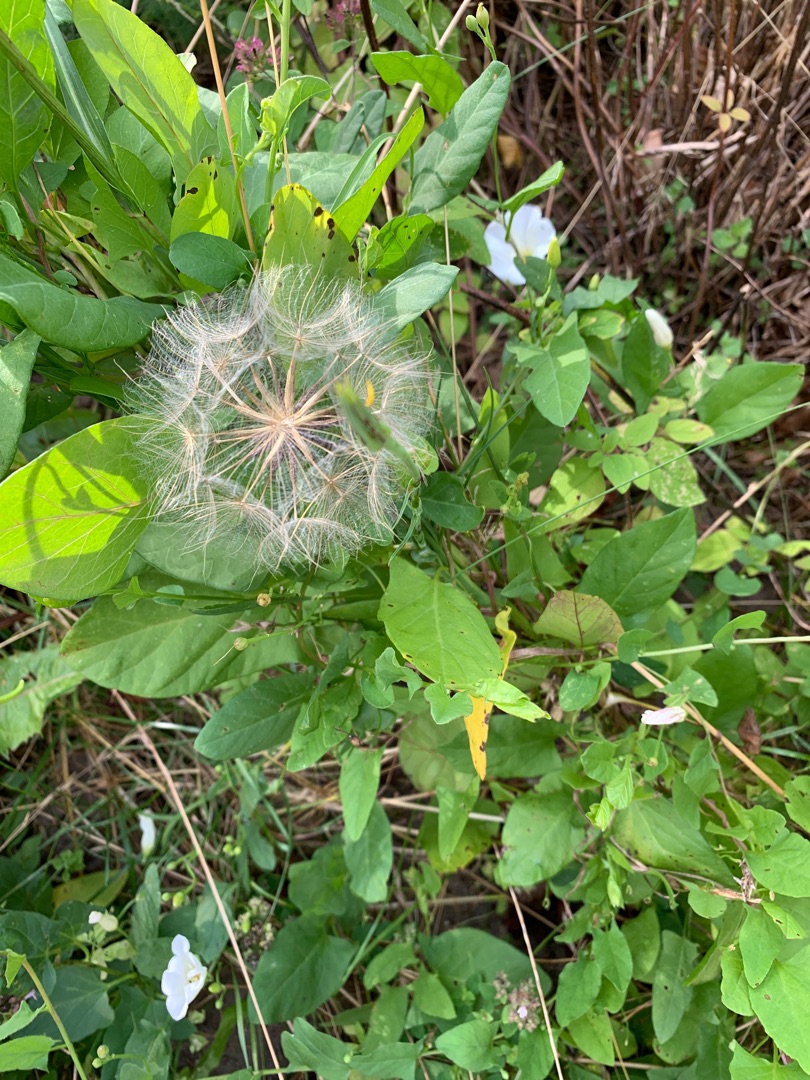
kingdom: Plantae
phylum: Tracheophyta
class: Magnoliopsida
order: Asterales
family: Asteraceae
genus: Tragopogon
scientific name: Tragopogon pratensis
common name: Gedeskæg
